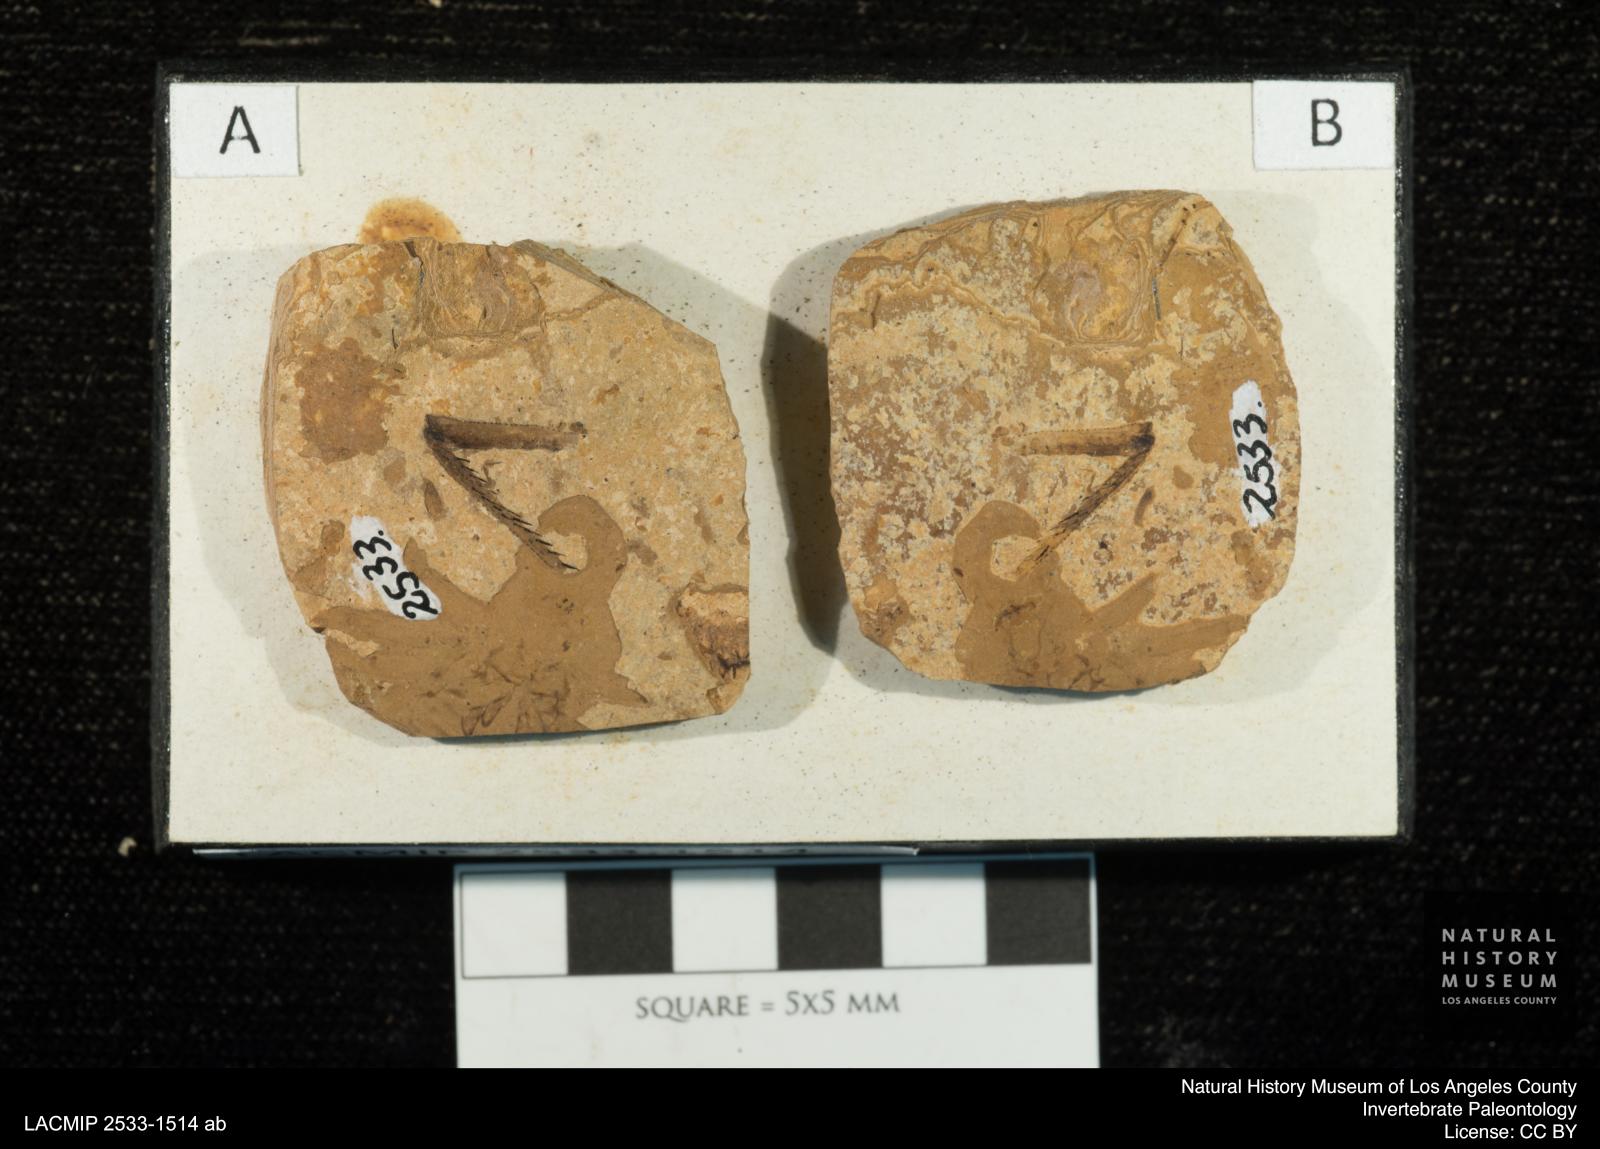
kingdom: Animalia
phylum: Arthropoda
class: Insecta
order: Odonata
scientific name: Odonata
